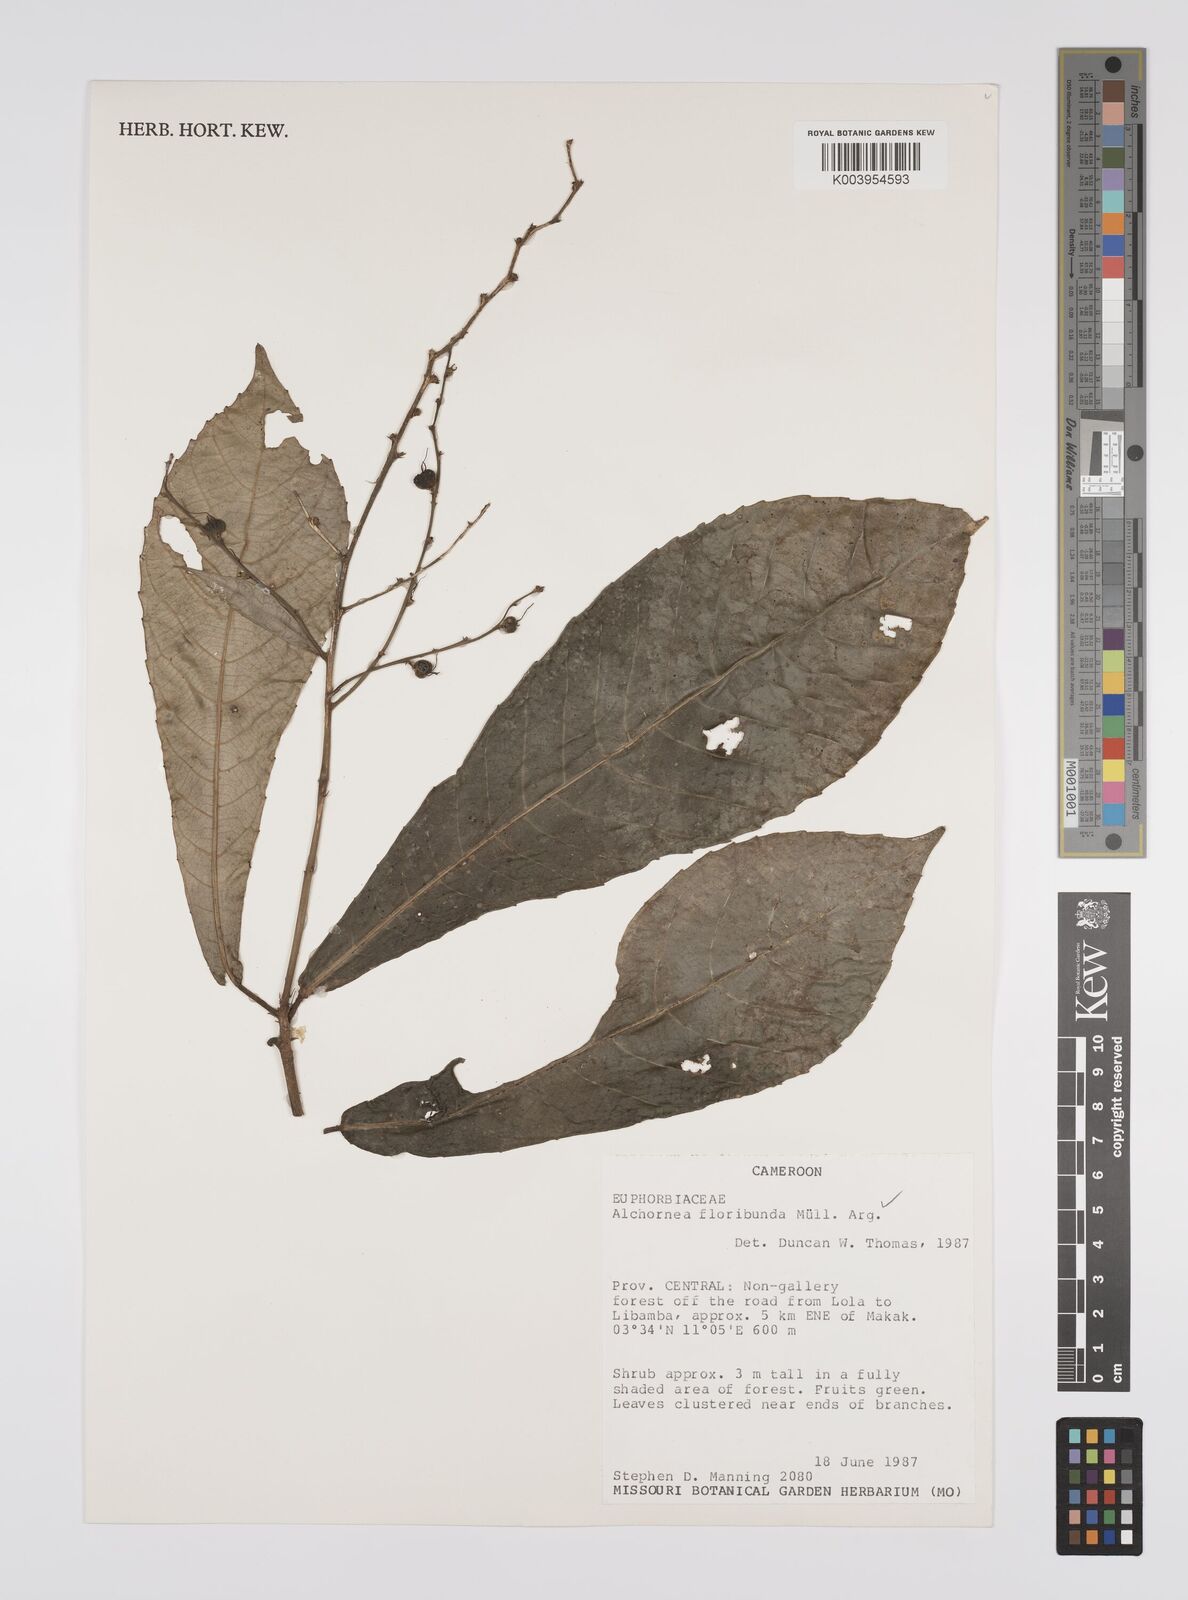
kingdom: Plantae
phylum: Tracheophyta
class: Magnoliopsida
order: Malpighiales
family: Euphorbiaceae
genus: Alchornea
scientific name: Alchornea floribunda
